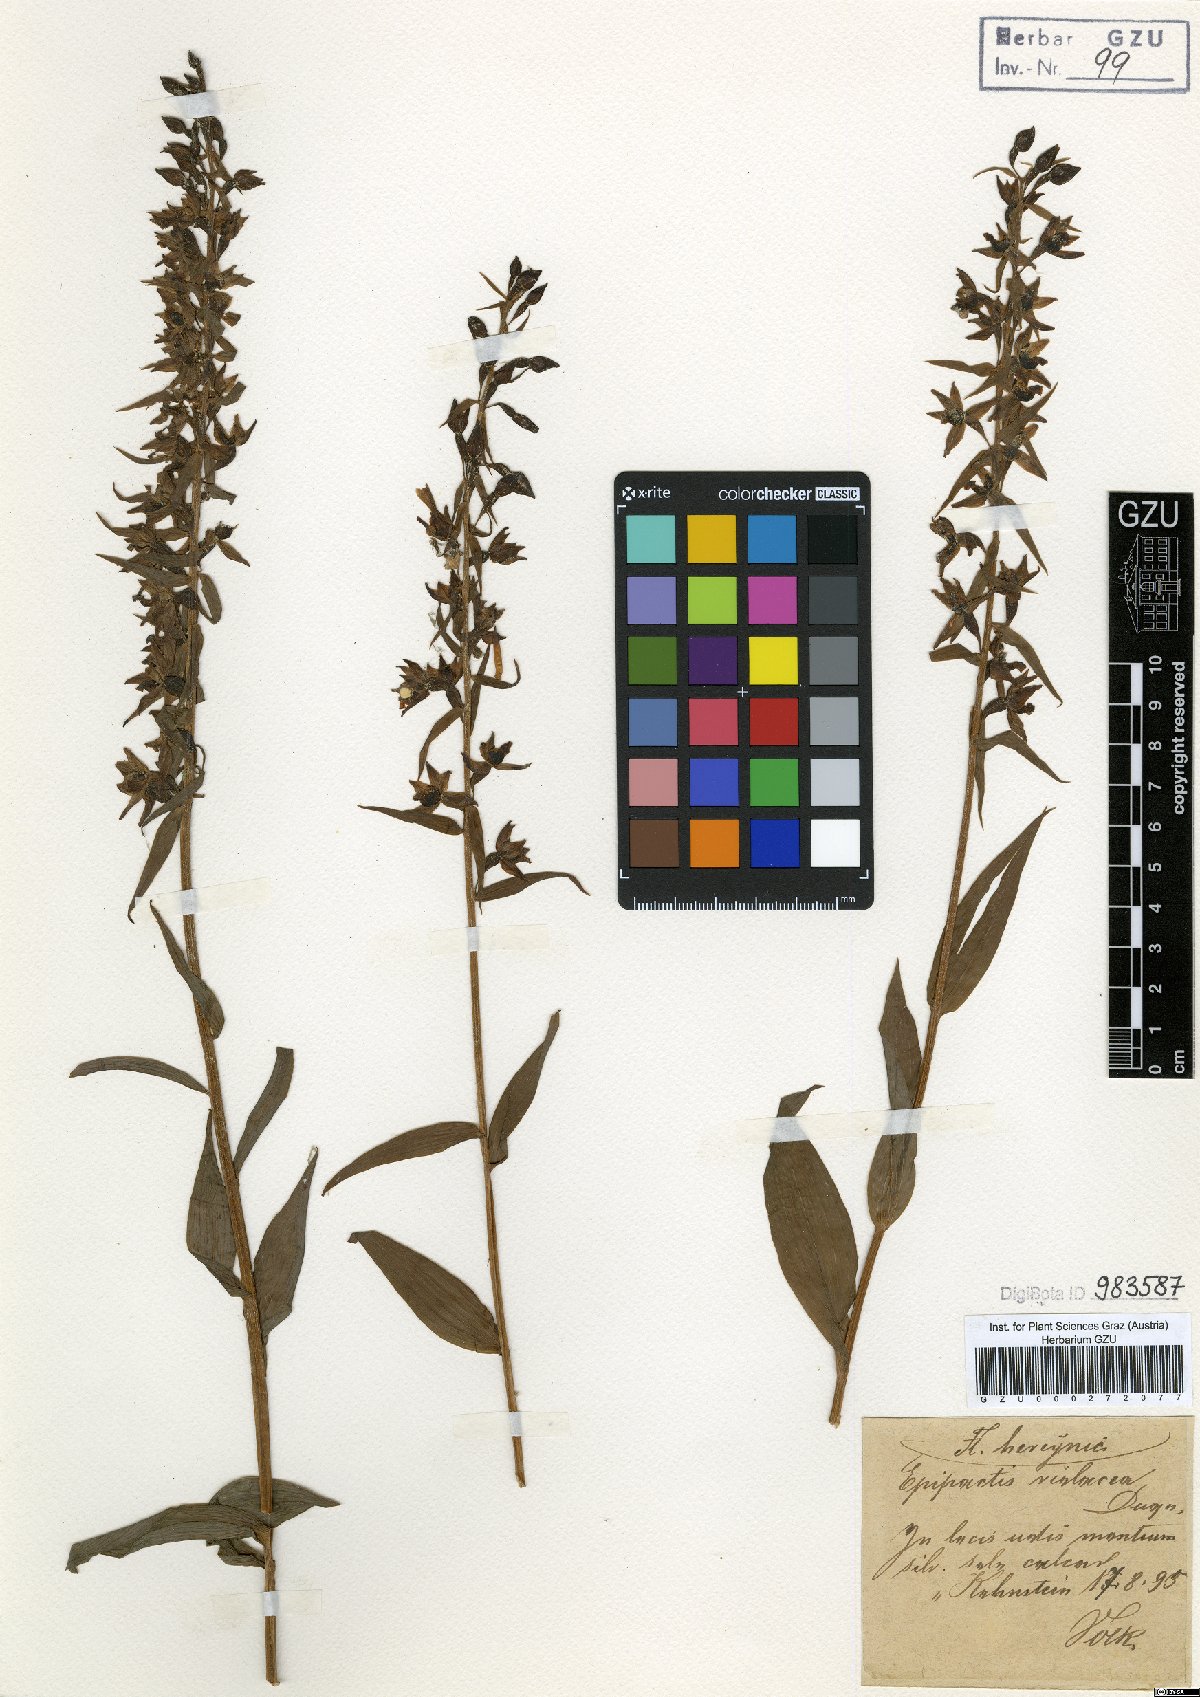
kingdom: Plantae
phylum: Tracheophyta
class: Liliopsida
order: Asparagales
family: Orchidaceae
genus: Epipactis
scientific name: Epipactis purpurata
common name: Violet helleborine
